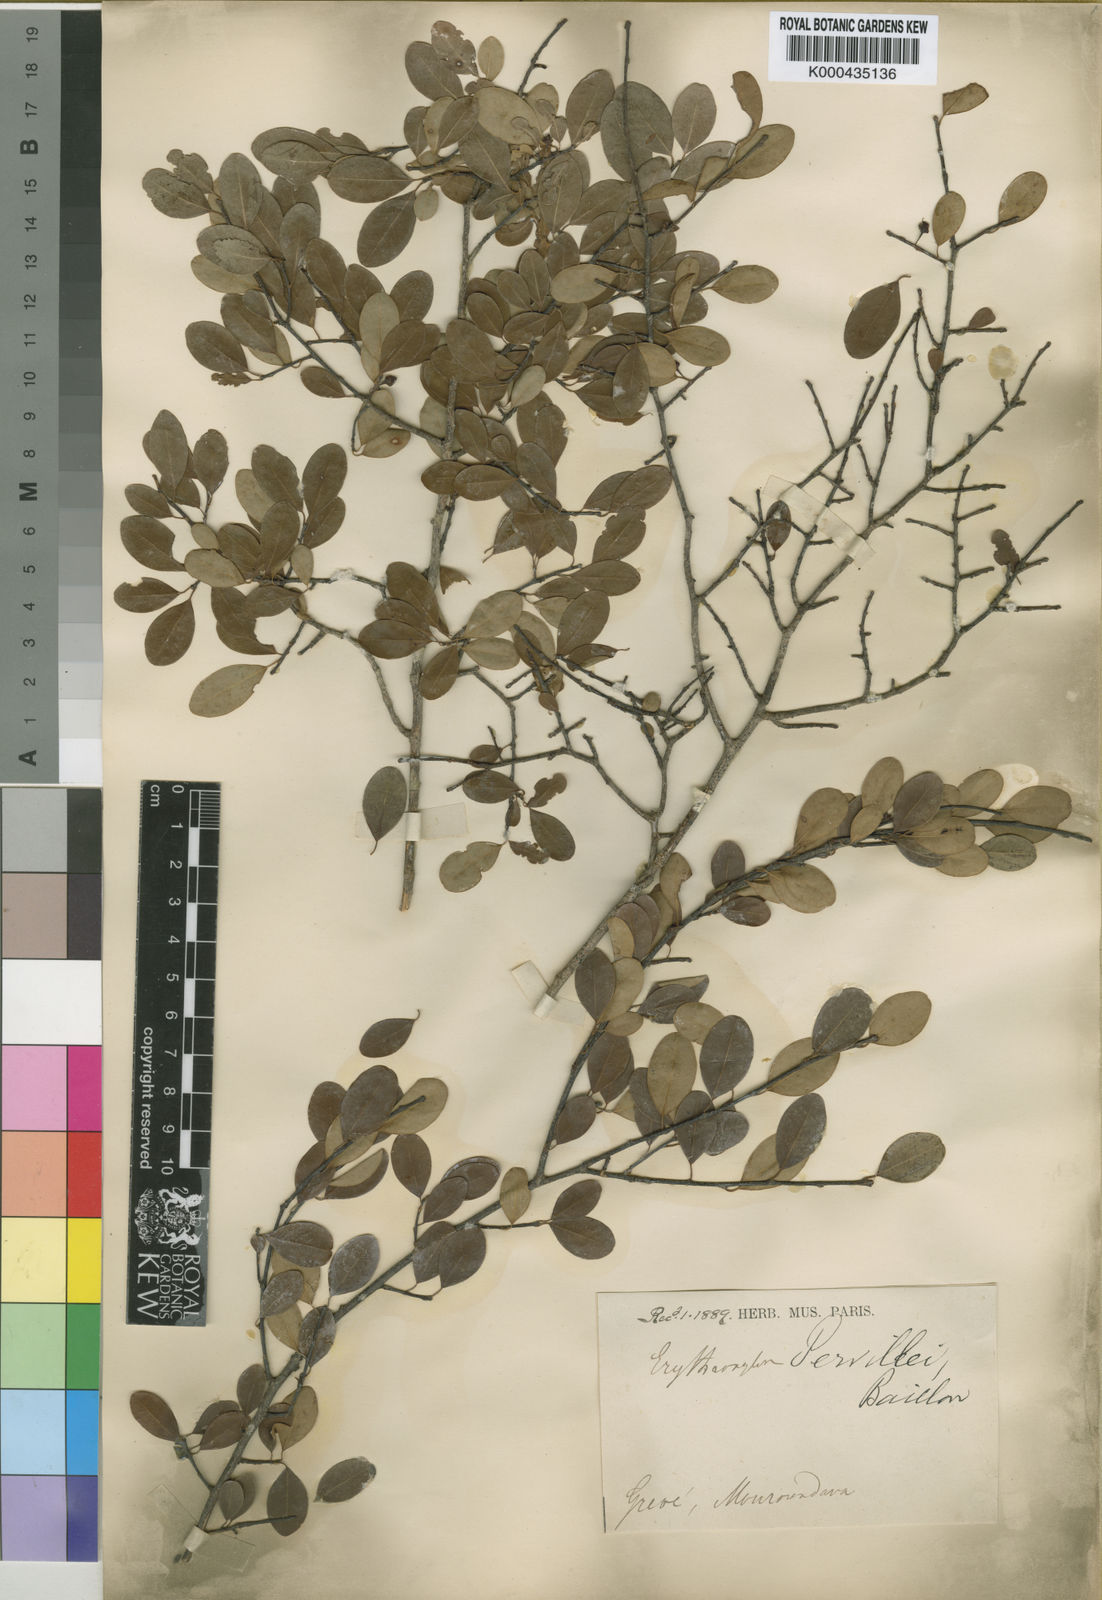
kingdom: Plantae
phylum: Tracheophyta
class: Magnoliopsida
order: Malpighiales
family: Erythroxylaceae
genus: Erythroxylum
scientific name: Erythroxylum pervillei
